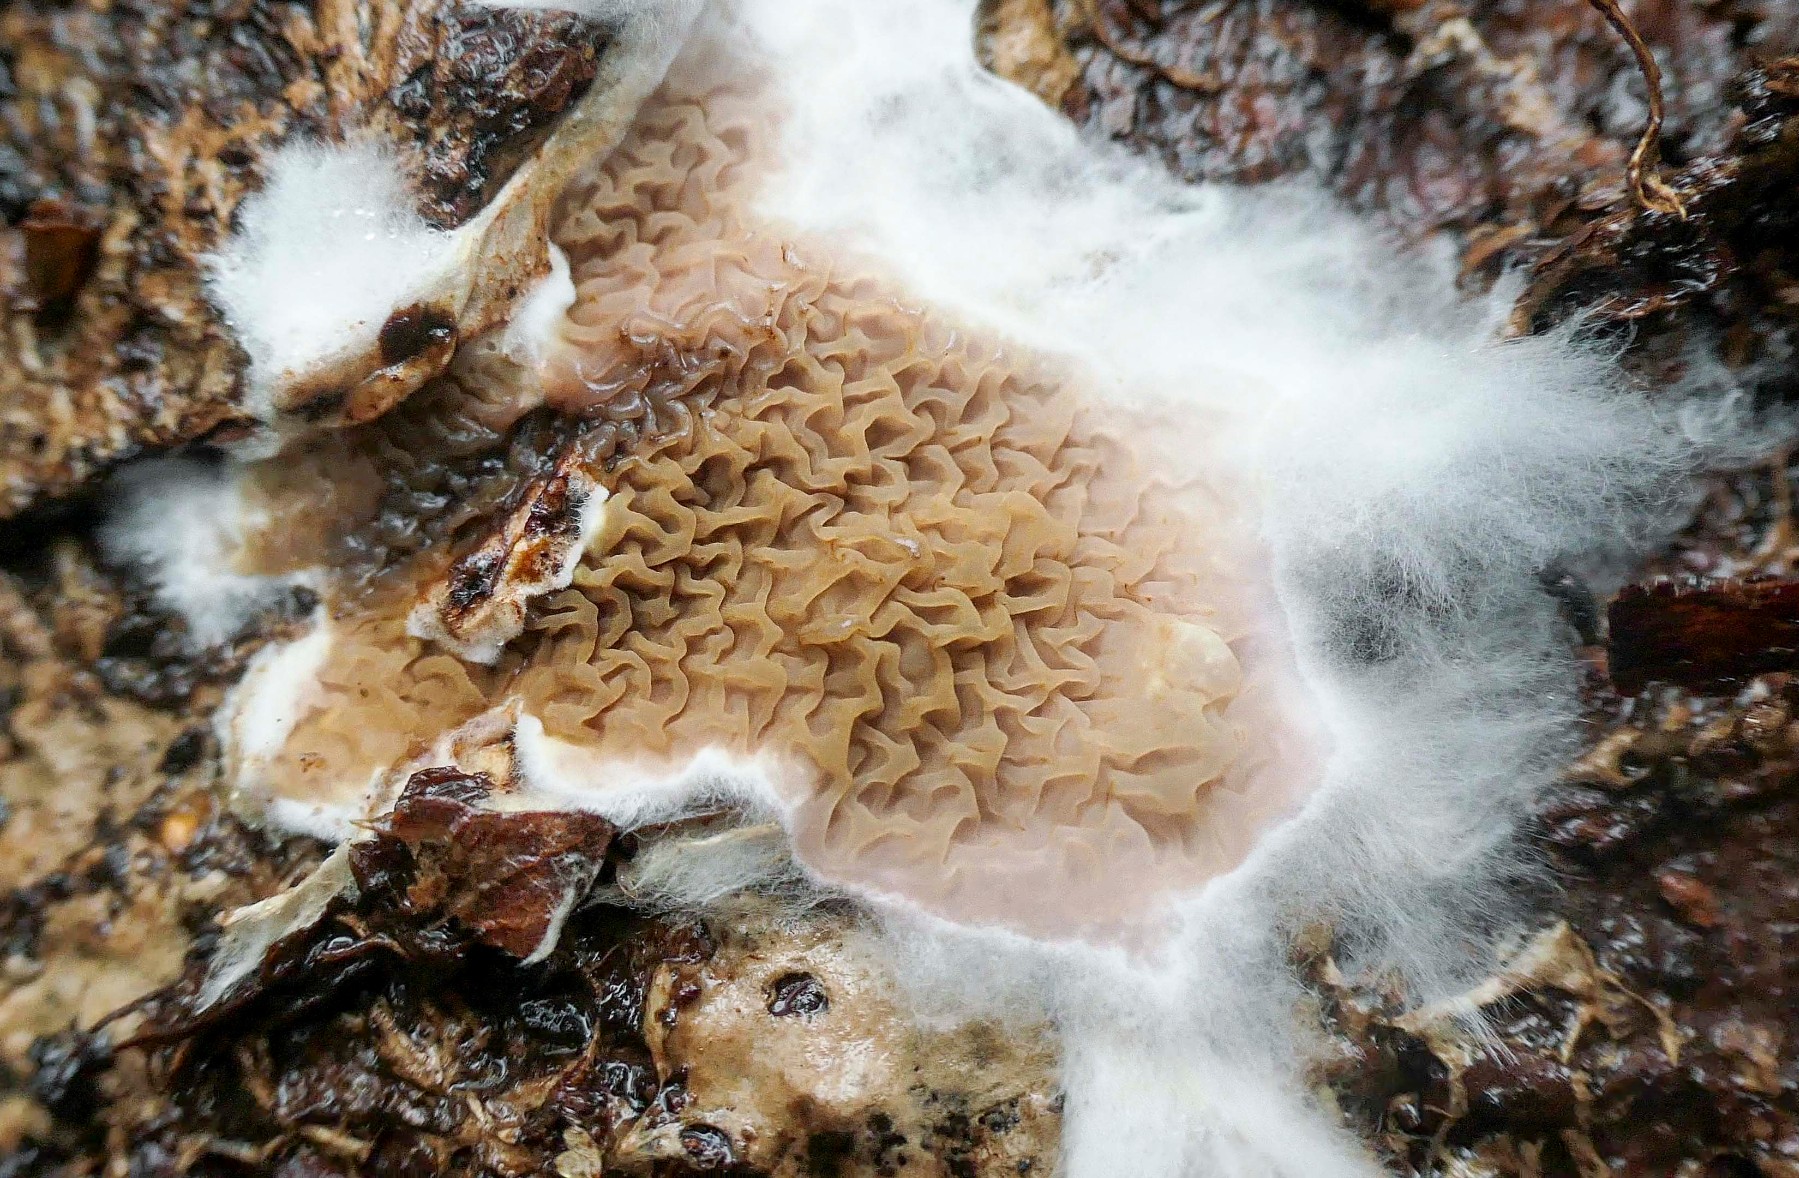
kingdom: Fungi
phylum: Basidiomycota
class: Agaricomycetes
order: Boletales
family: Serpulaceae
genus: Serpula
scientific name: Serpula himantioides
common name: tyndkødet hussvamp
